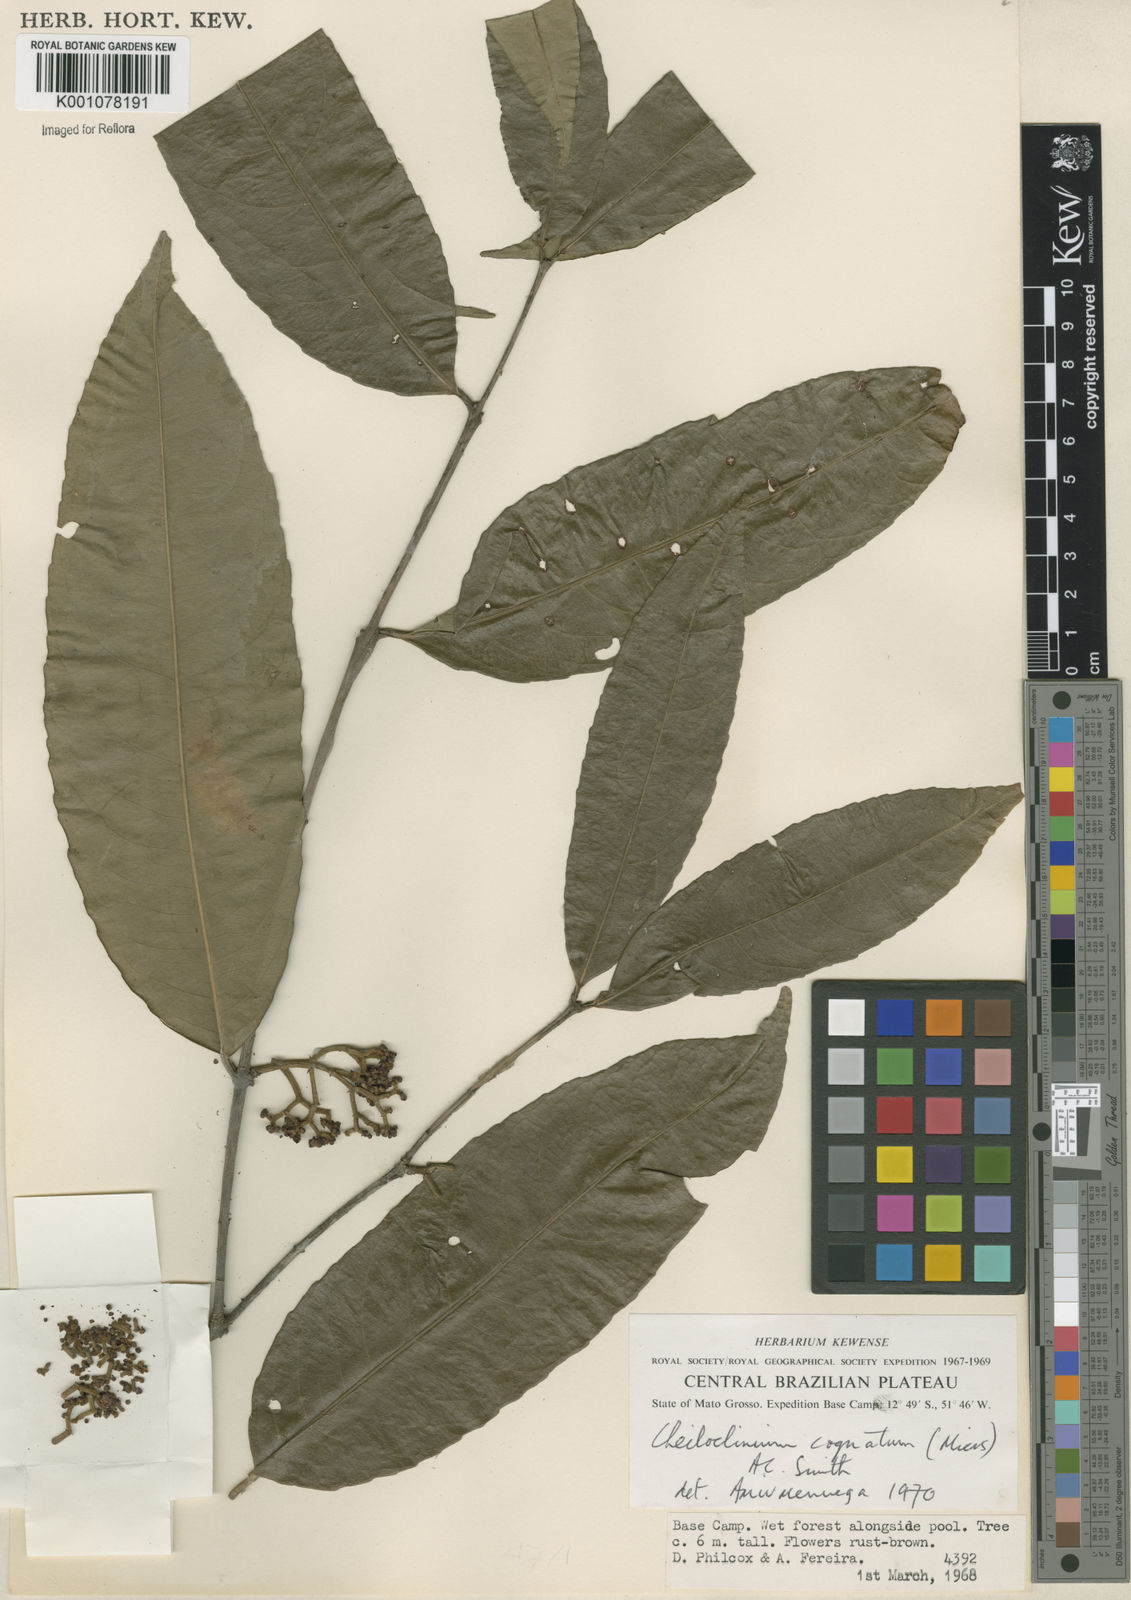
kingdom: Plantae
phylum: Tracheophyta
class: Magnoliopsida
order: Celastrales
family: Celastraceae
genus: Cheiloclinium
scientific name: Cheiloclinium cognatum
